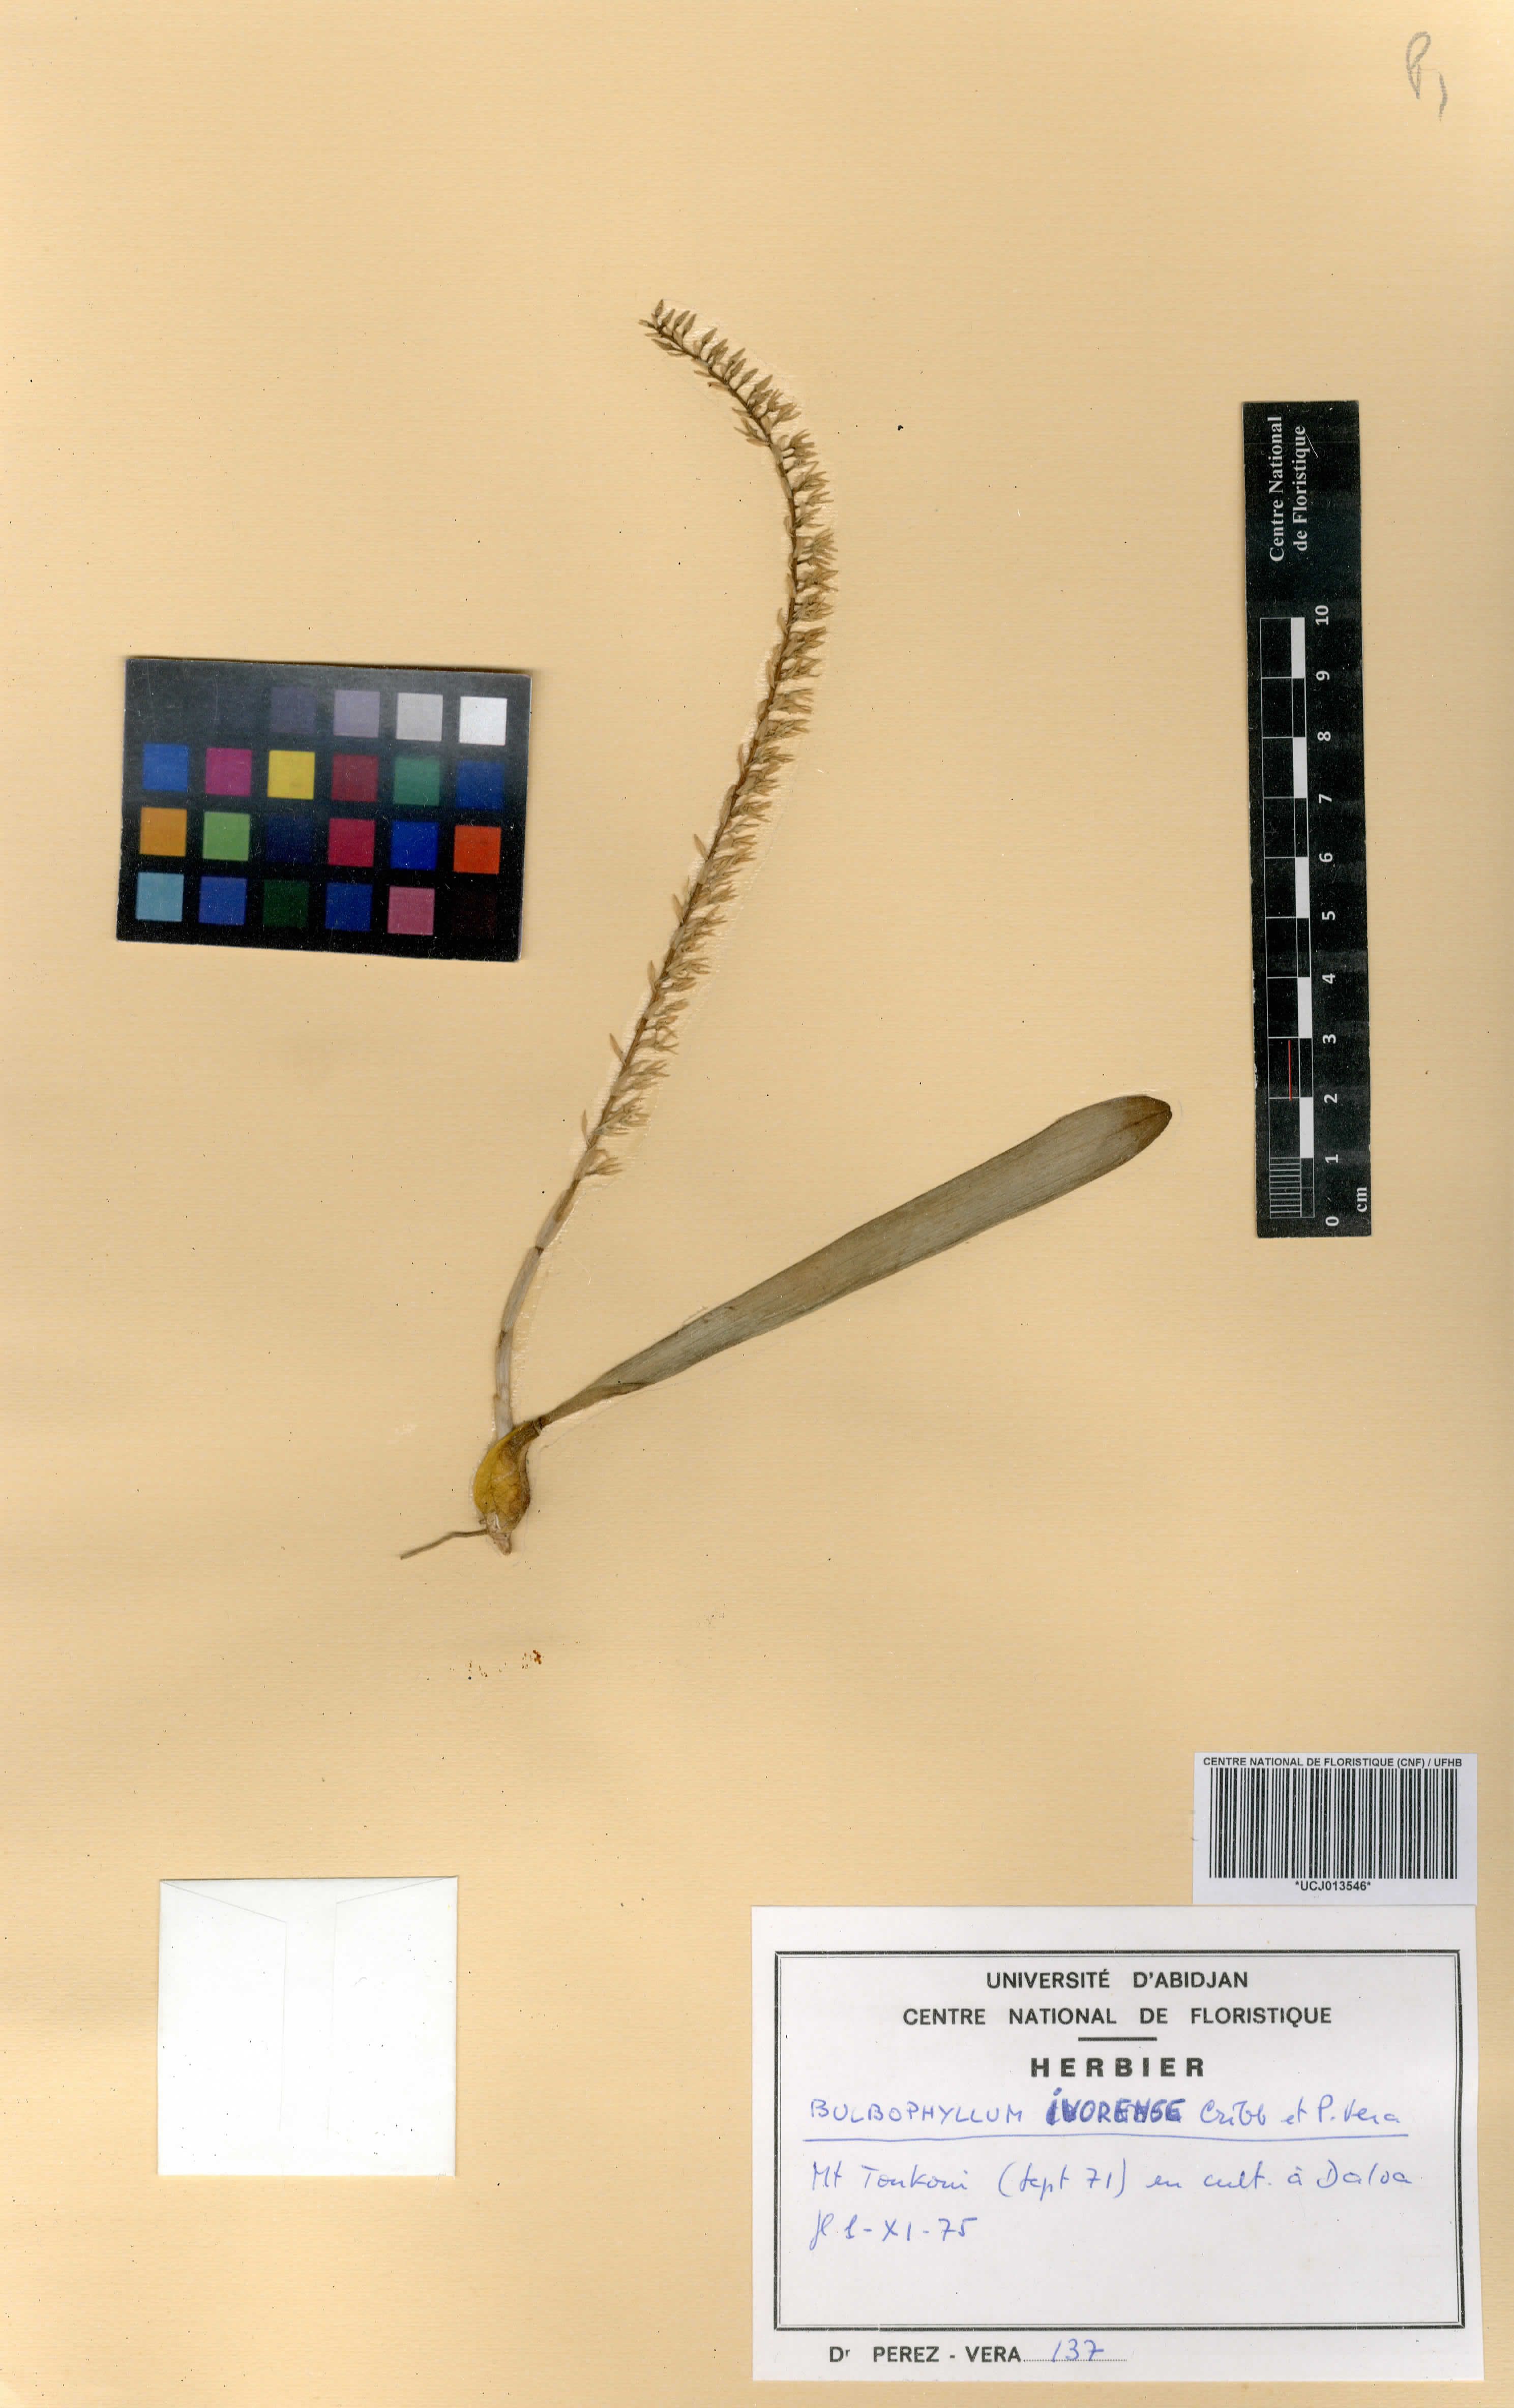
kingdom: Plantae
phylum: Tracheophyta
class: Liliopsida
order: Asparagales
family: Orchidaceae
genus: Bulbophyllum
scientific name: Bulbophyllum ivorense
